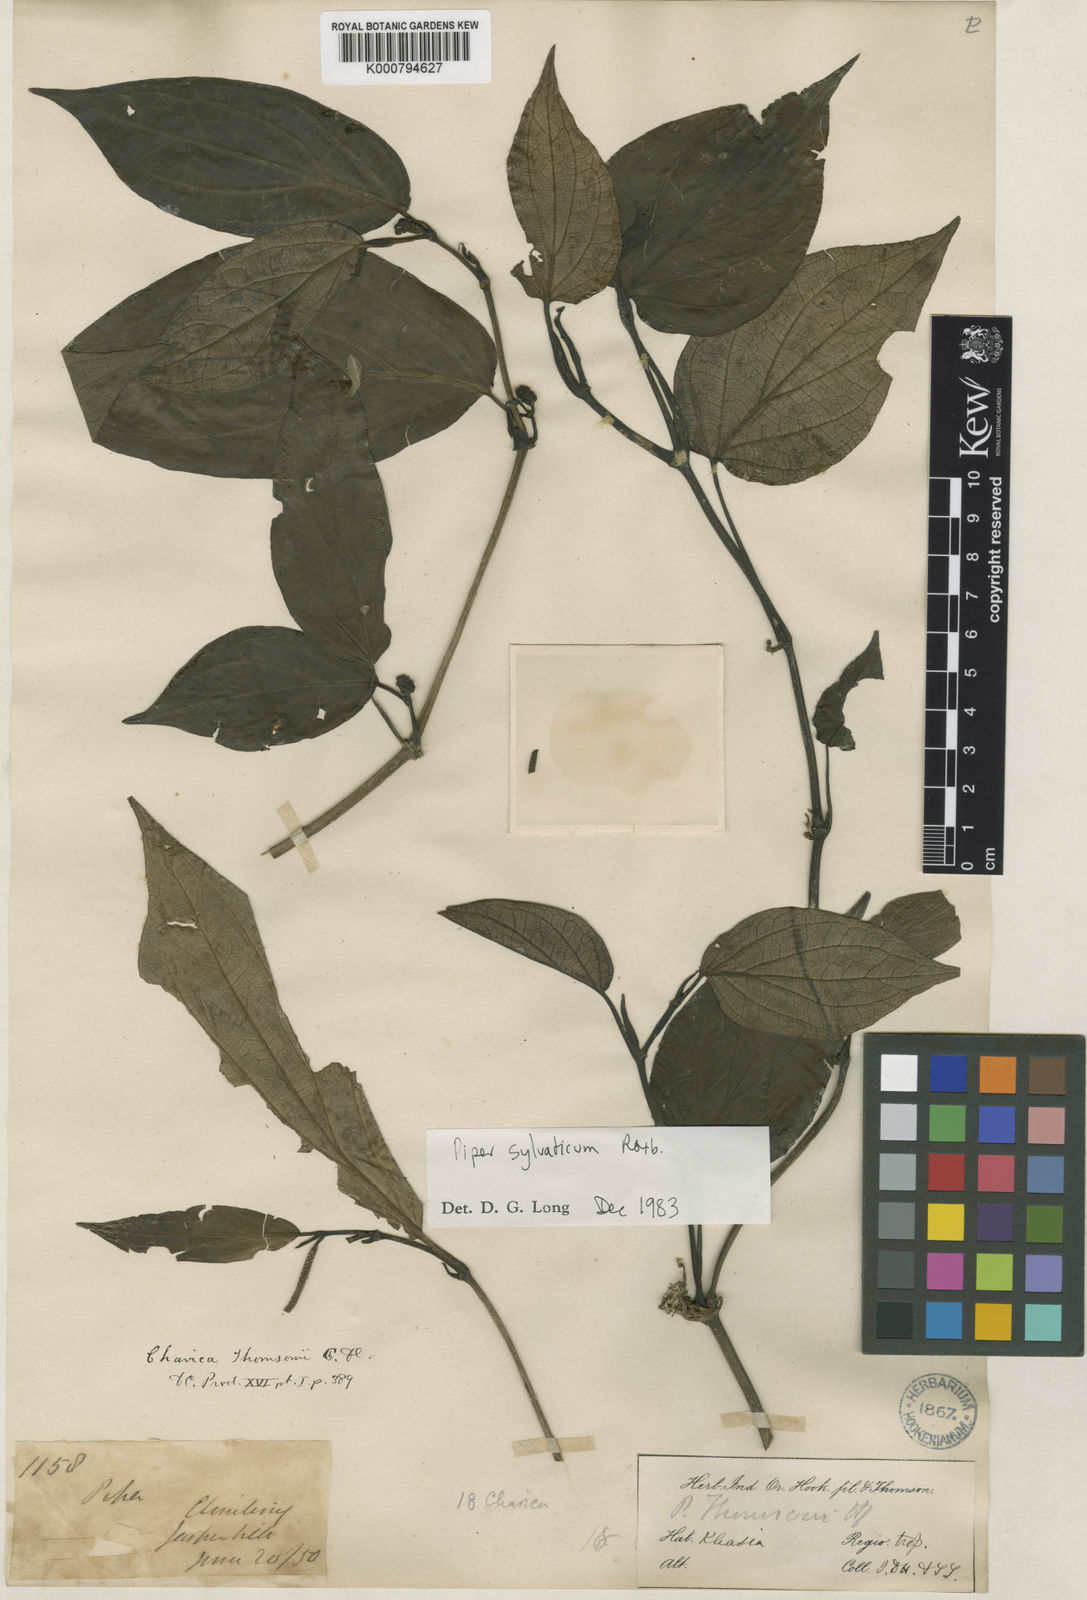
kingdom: Plantae
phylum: Tracheophyta
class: Magnoliopsida
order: Piperales
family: Piperaceae
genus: Piper
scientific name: Piper thomsonii
